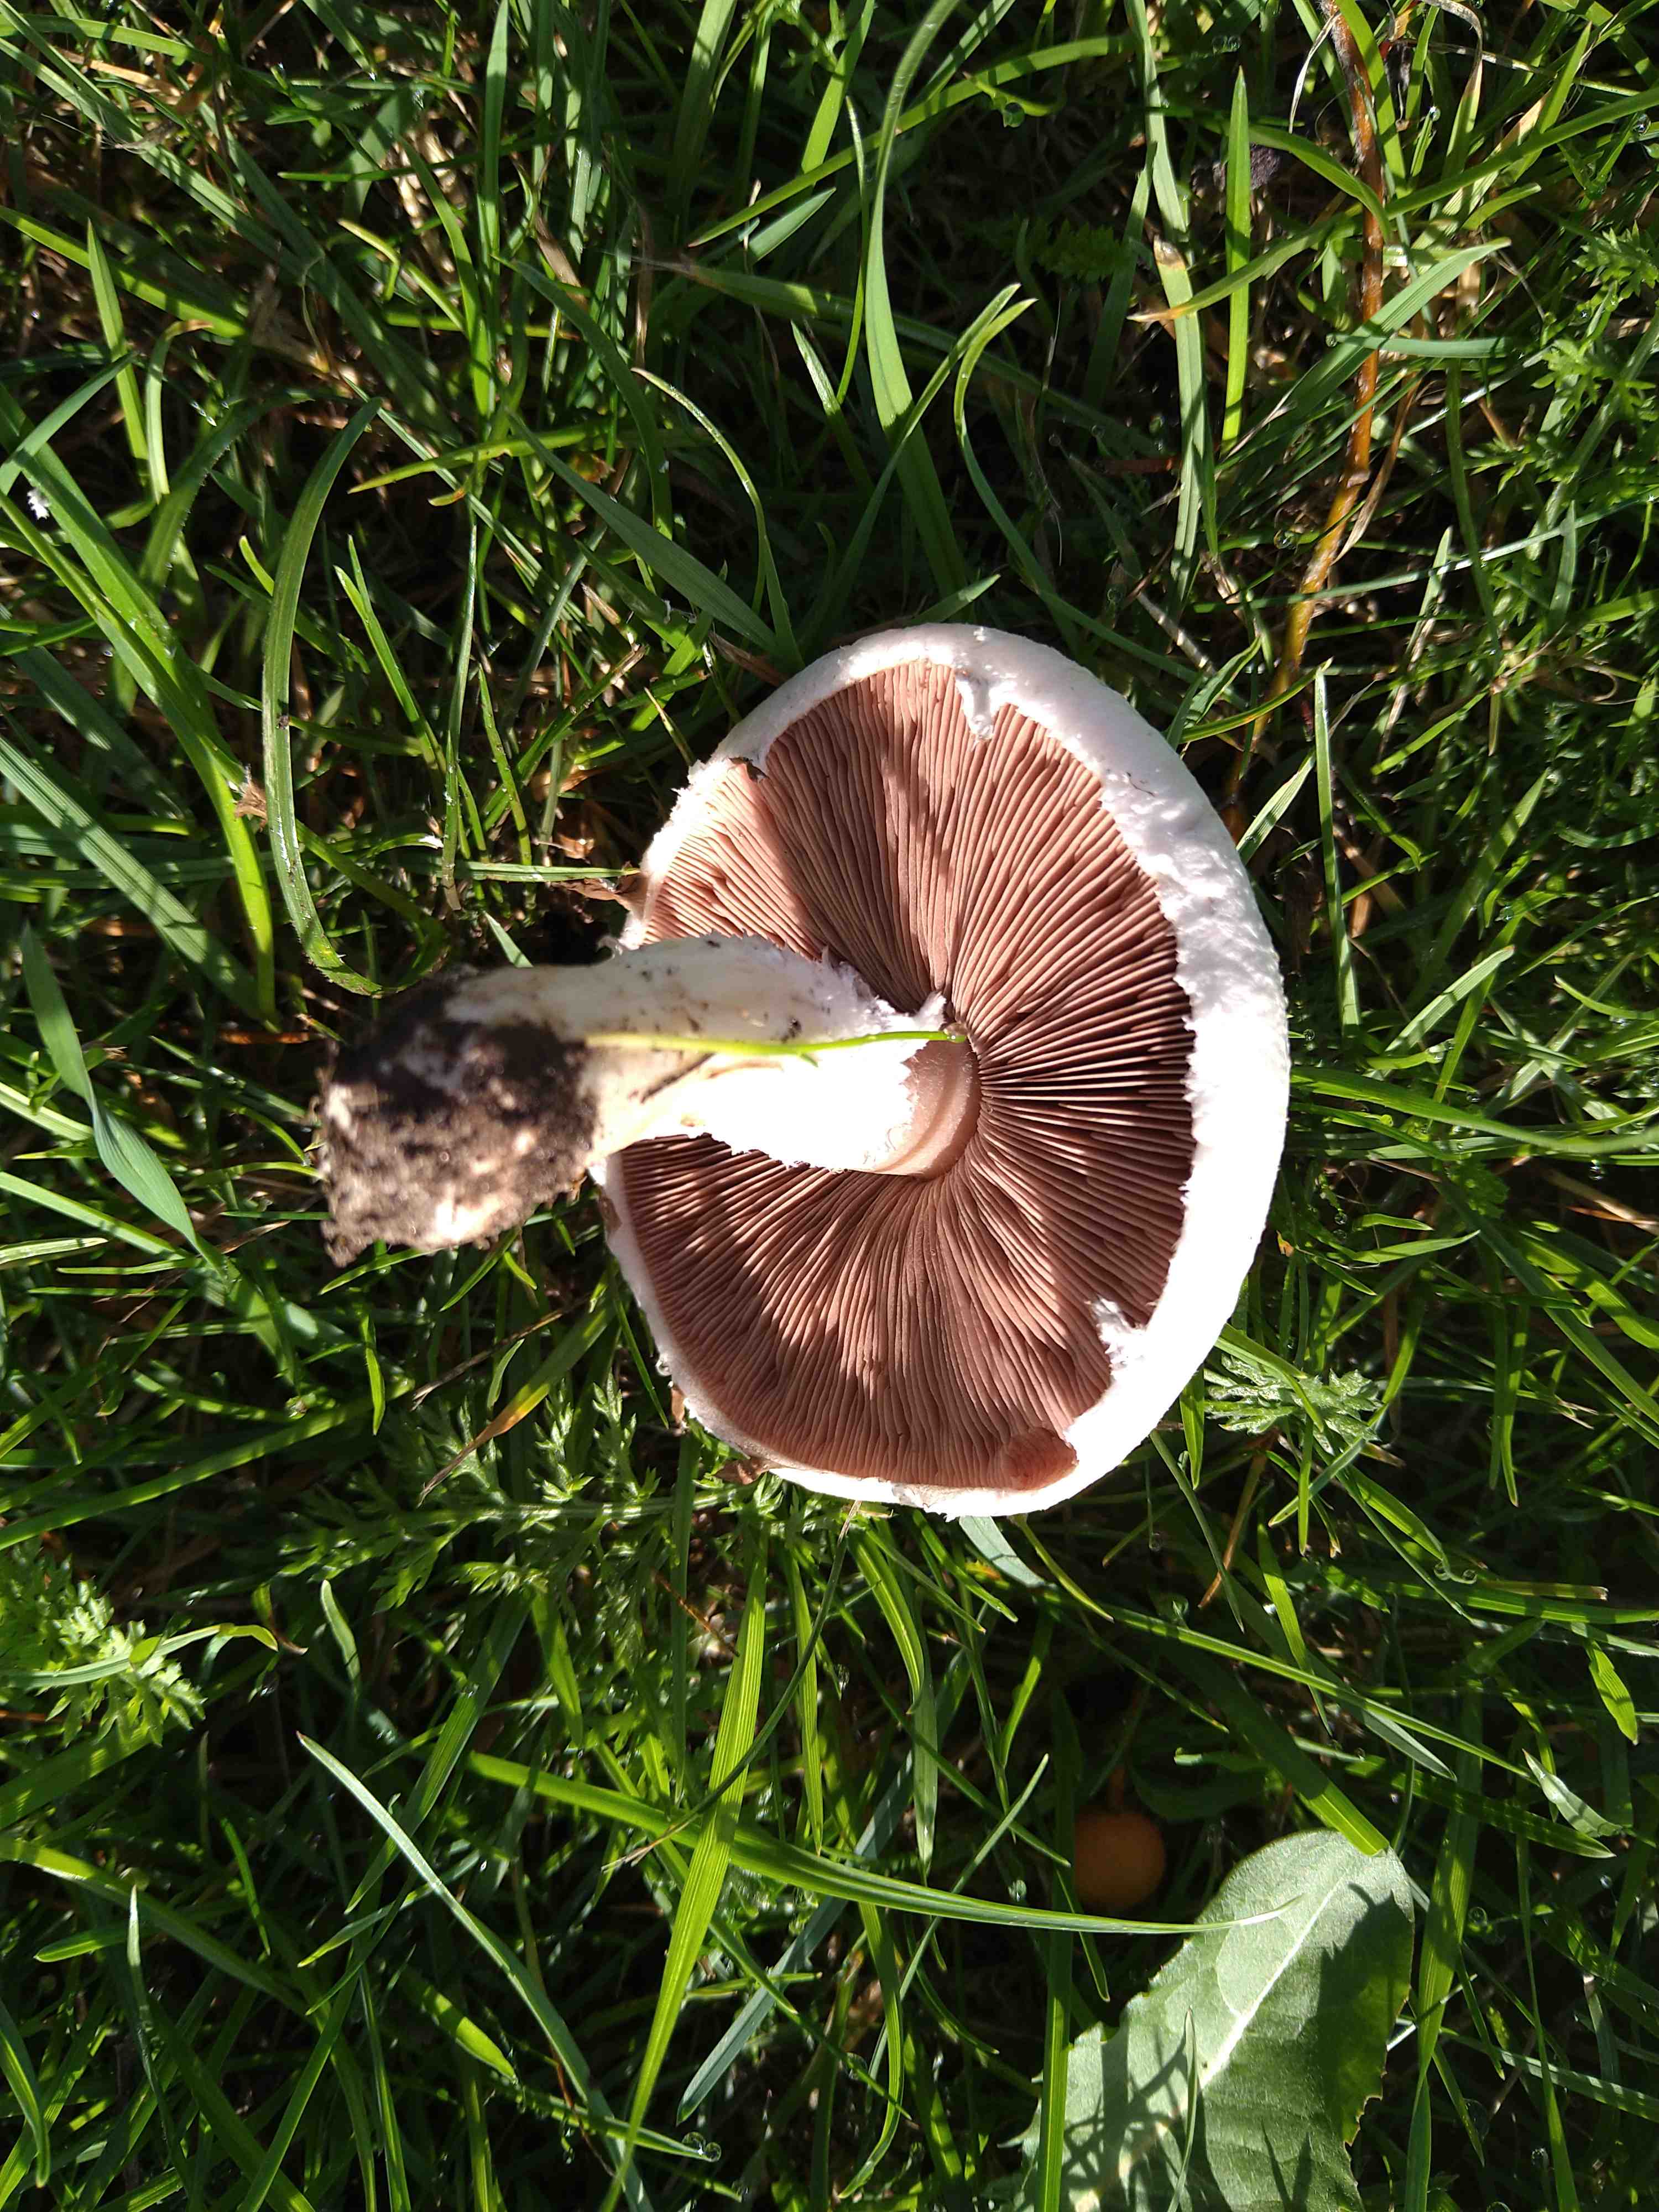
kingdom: Fungi
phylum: Basidiomycota
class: Agaricomycetes
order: Agaricales
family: Agaricaceae
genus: Agaricus
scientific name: Agaricus campestris
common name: mark-champignon
